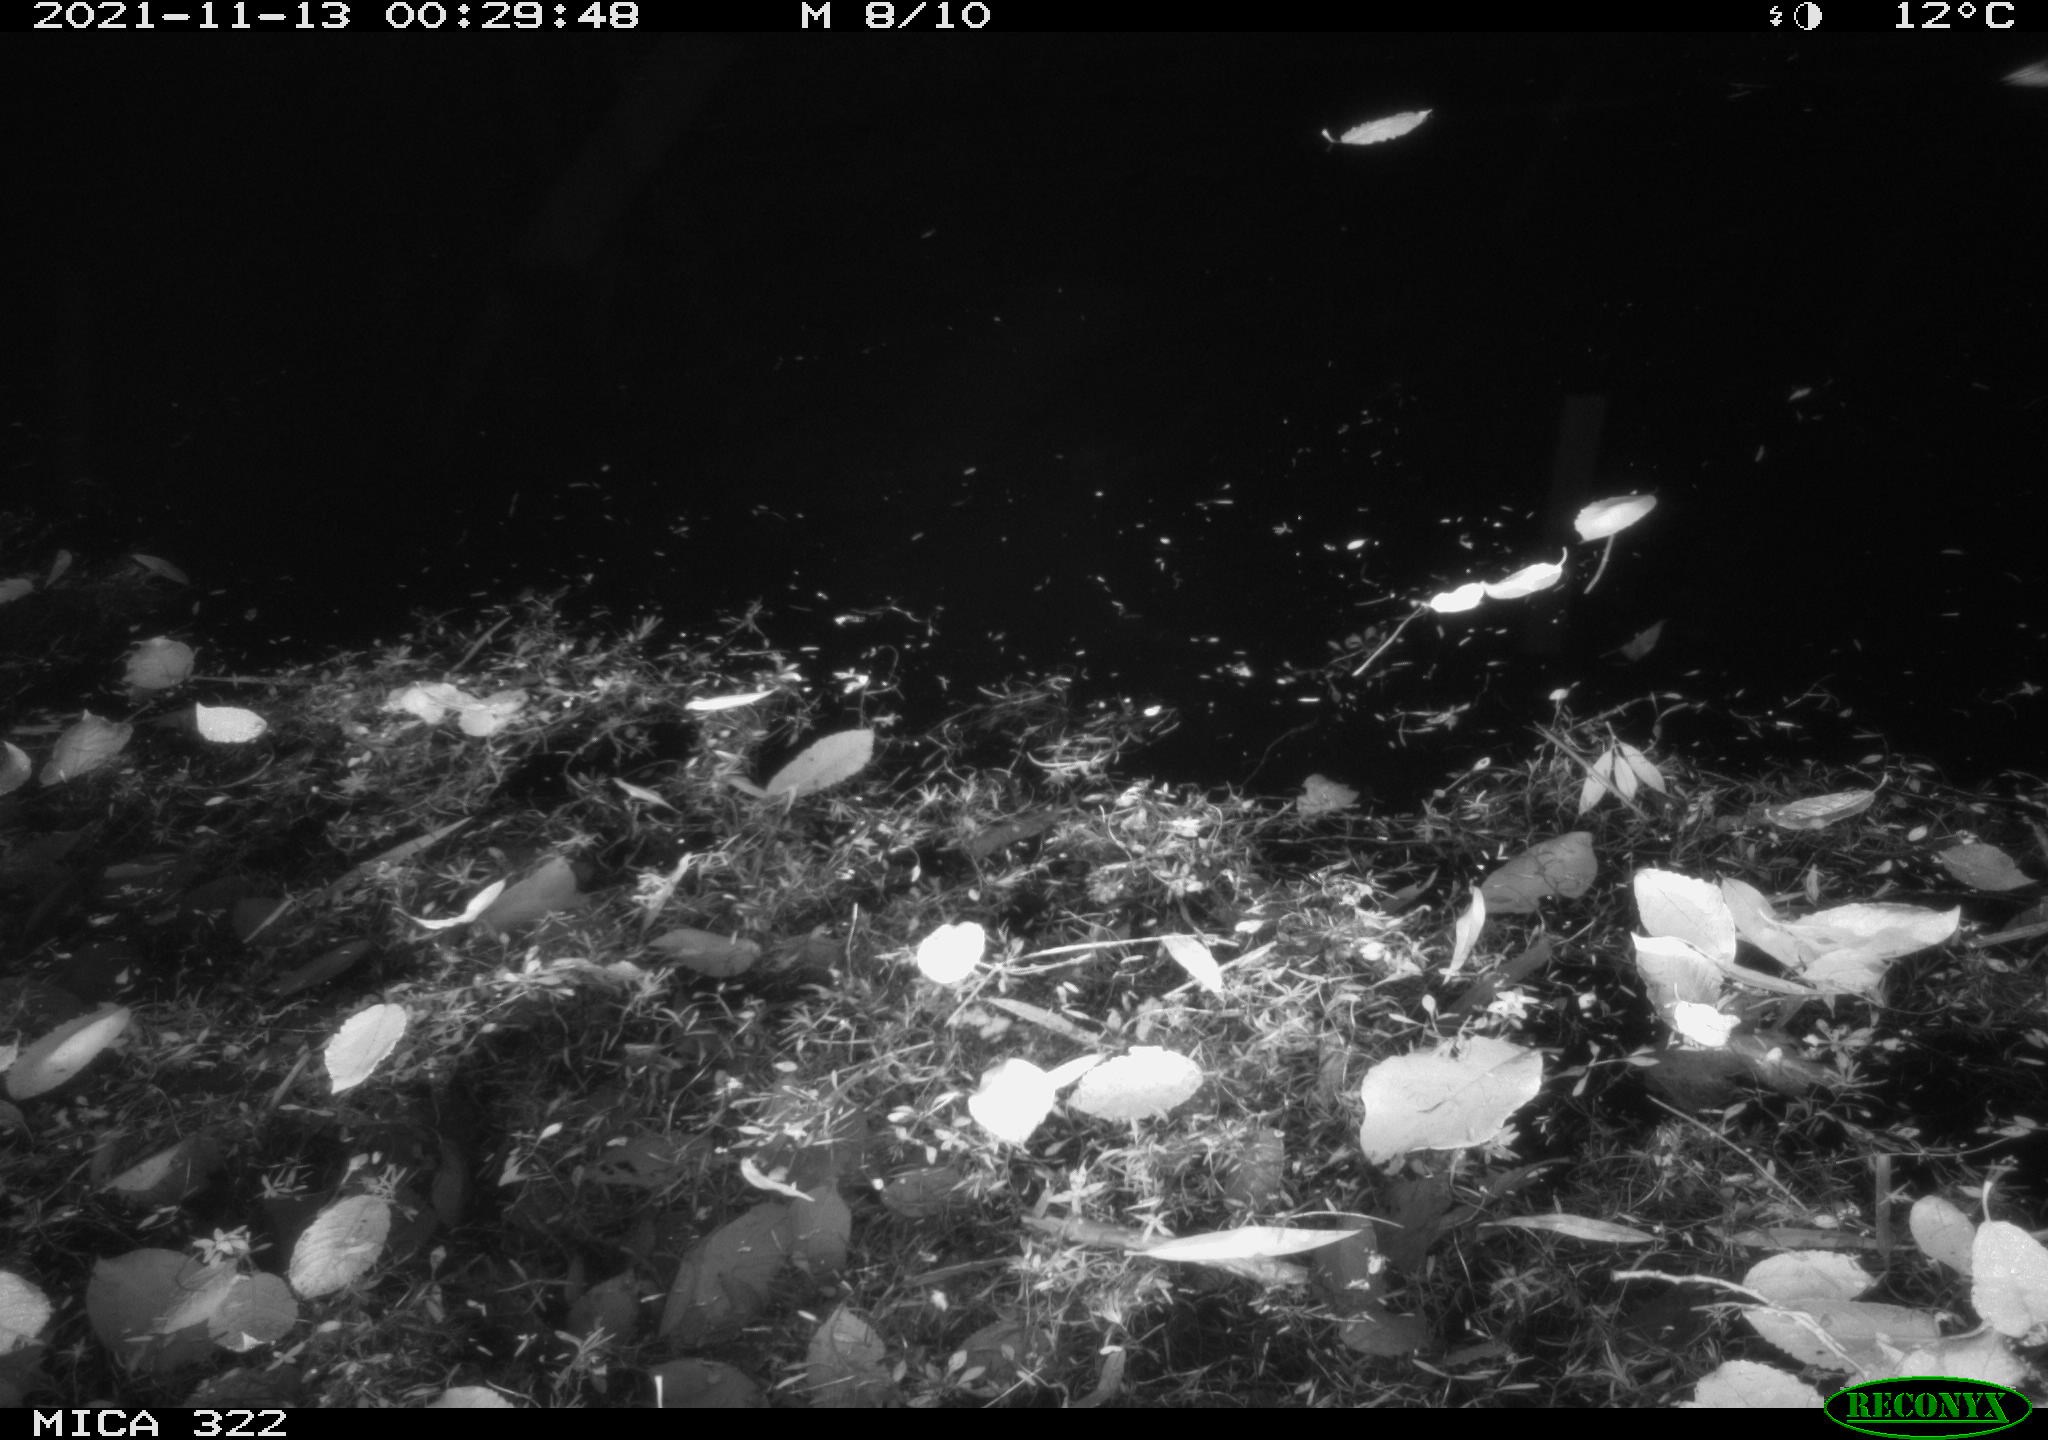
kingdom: Animalia
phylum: Chordata
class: Aves
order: Anseriformes
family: Anatidae
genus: Anas
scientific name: Anas platyrhynchos
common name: Mallard
